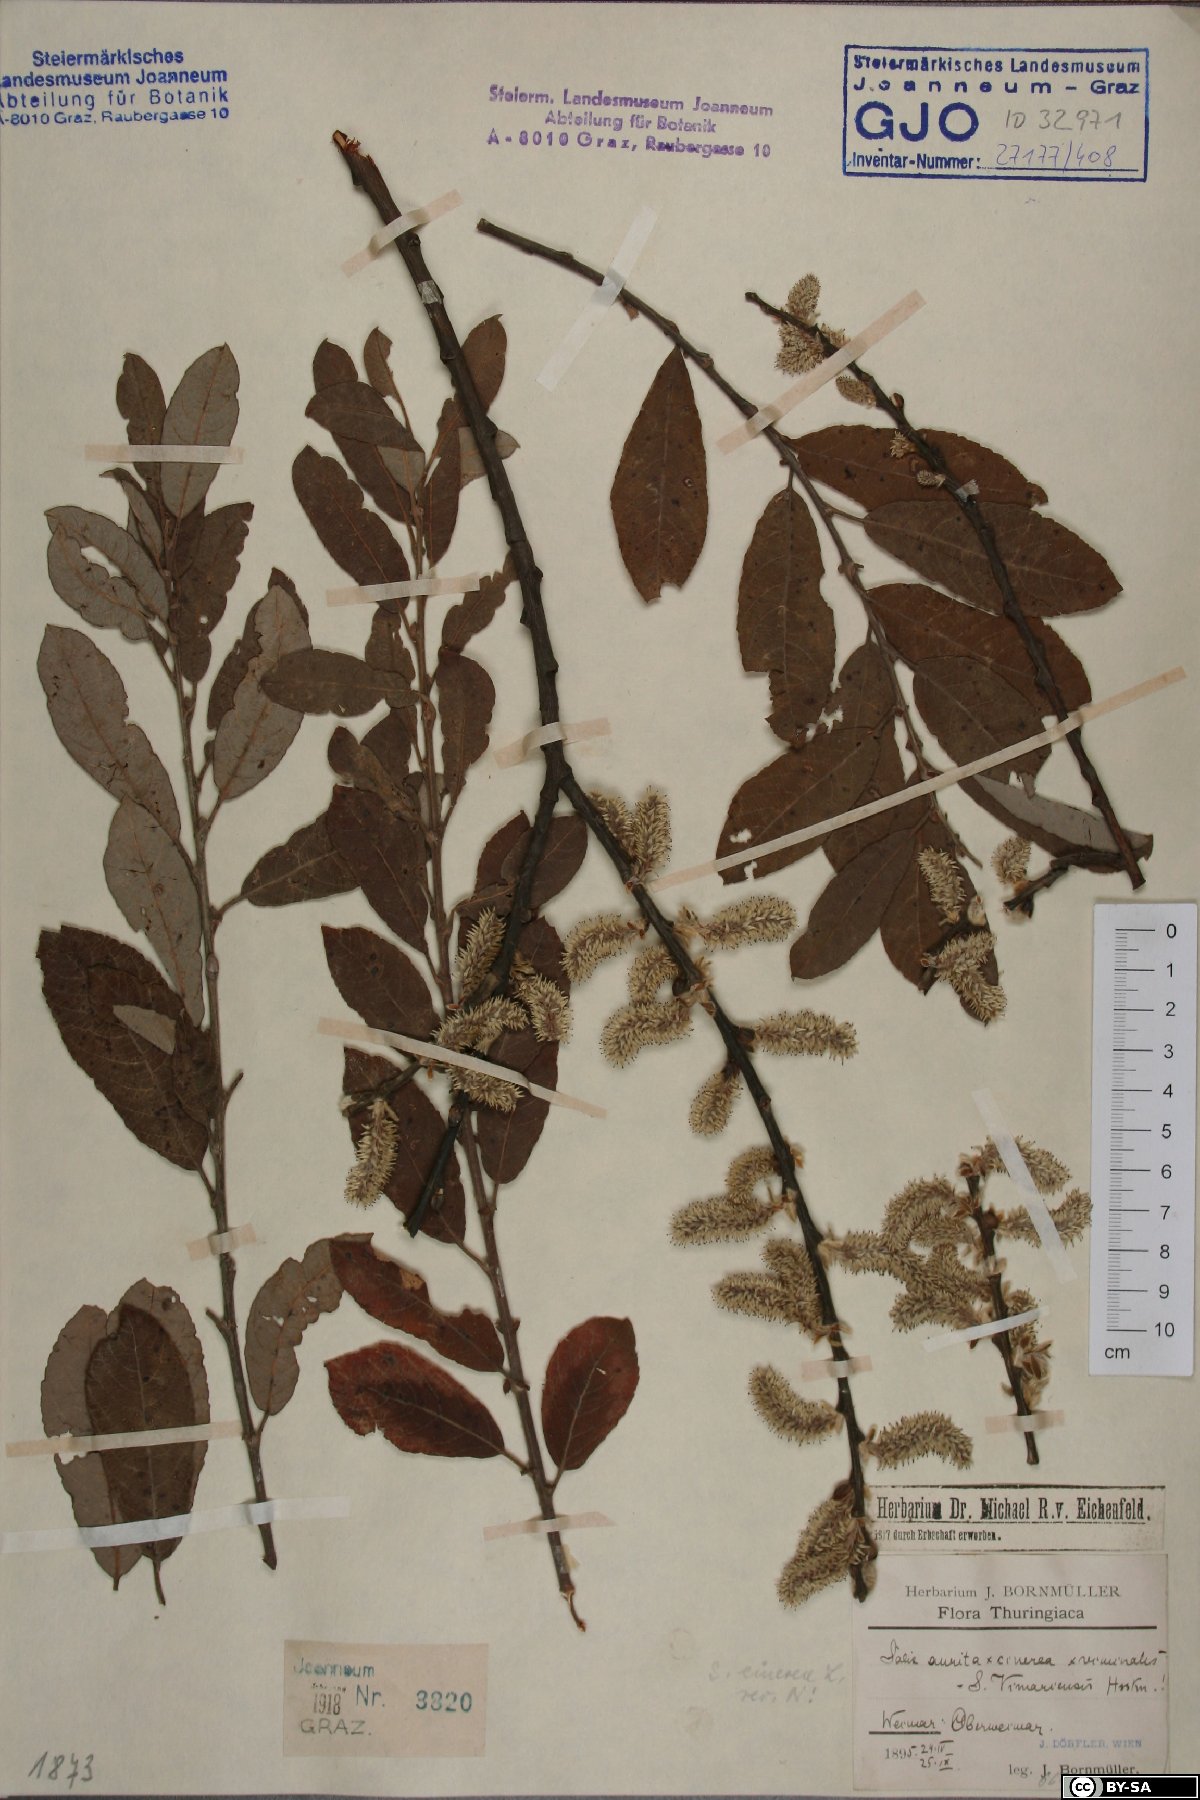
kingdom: Plantae
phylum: Tracheophyta
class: Magnoliopsida
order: Malpighiales
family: Salicaceae
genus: Salix
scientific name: Salix cinerea
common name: Common sallow
